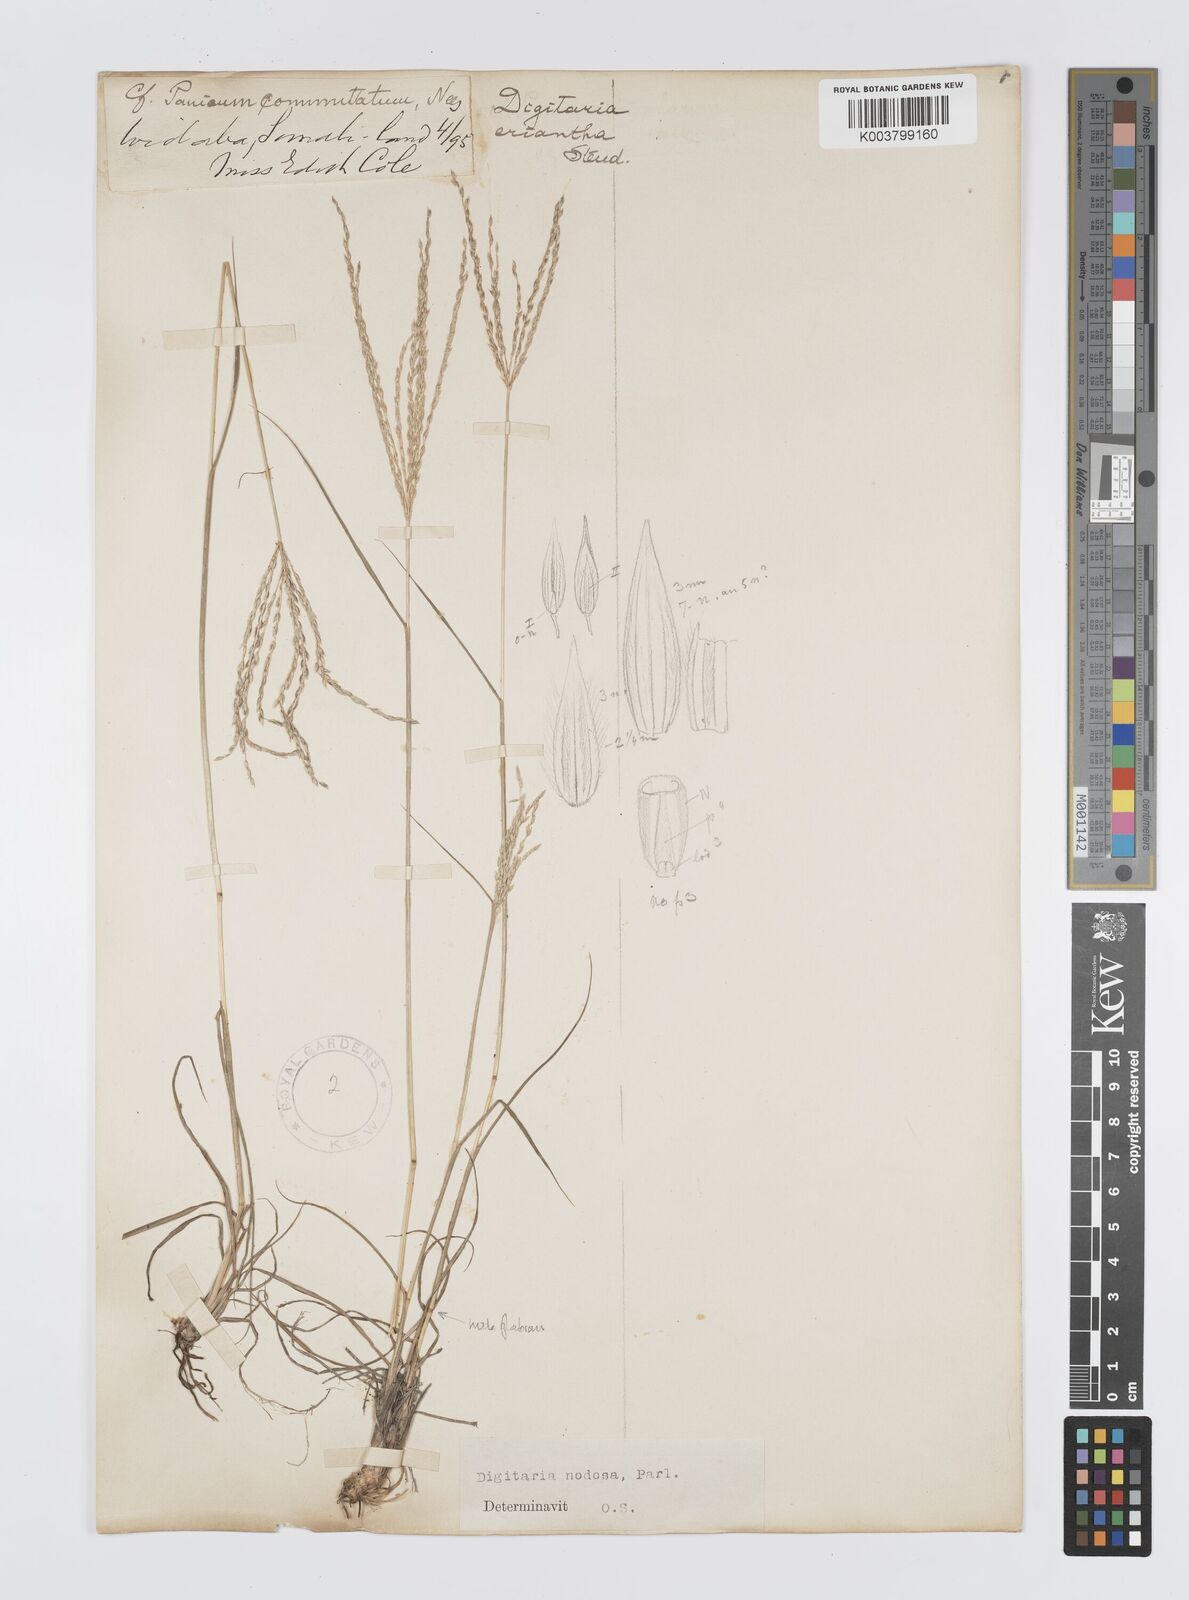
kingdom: Plantae
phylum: Tracheophyta
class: Liliopsida
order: Poales
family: Poaceae
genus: Digitaria
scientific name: Digitaria nodosa
